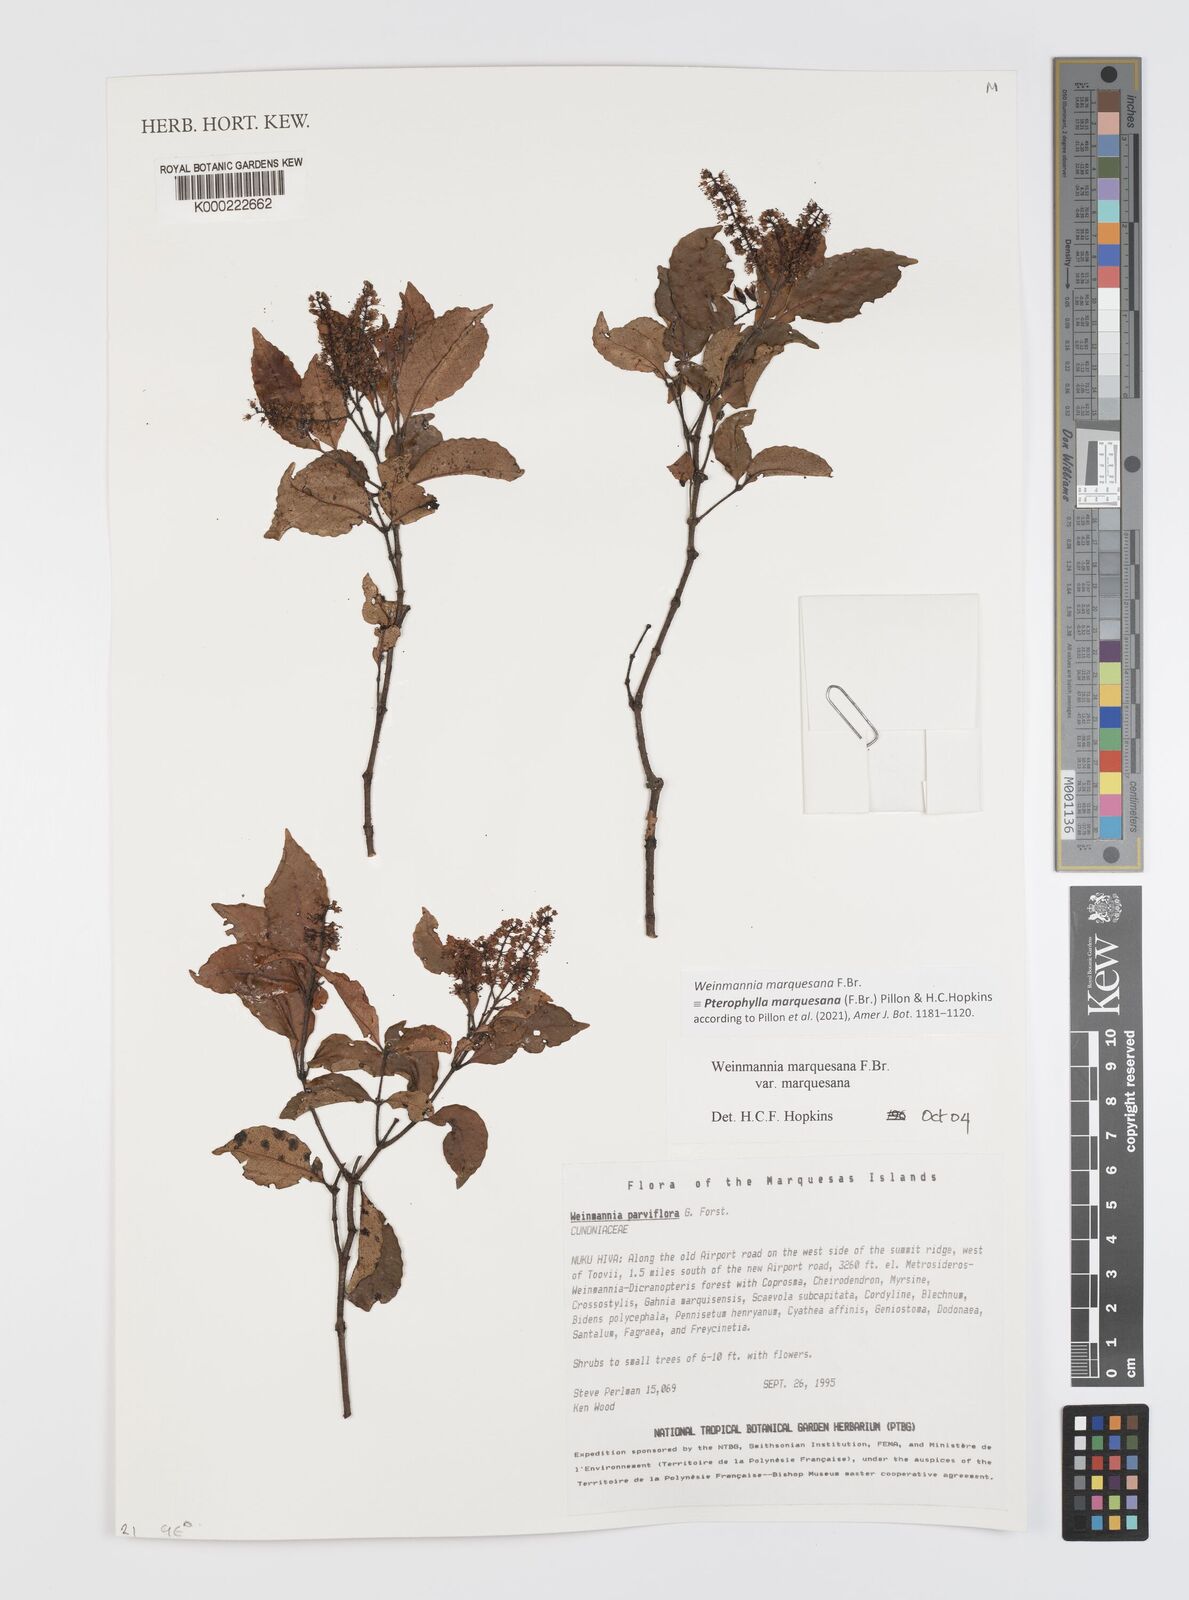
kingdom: Plantae
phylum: Tracheophyta
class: Magnoliopsida
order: Oxalidales
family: Cunoniaceae
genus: Pterophylla
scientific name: Pterophylla marquesana
